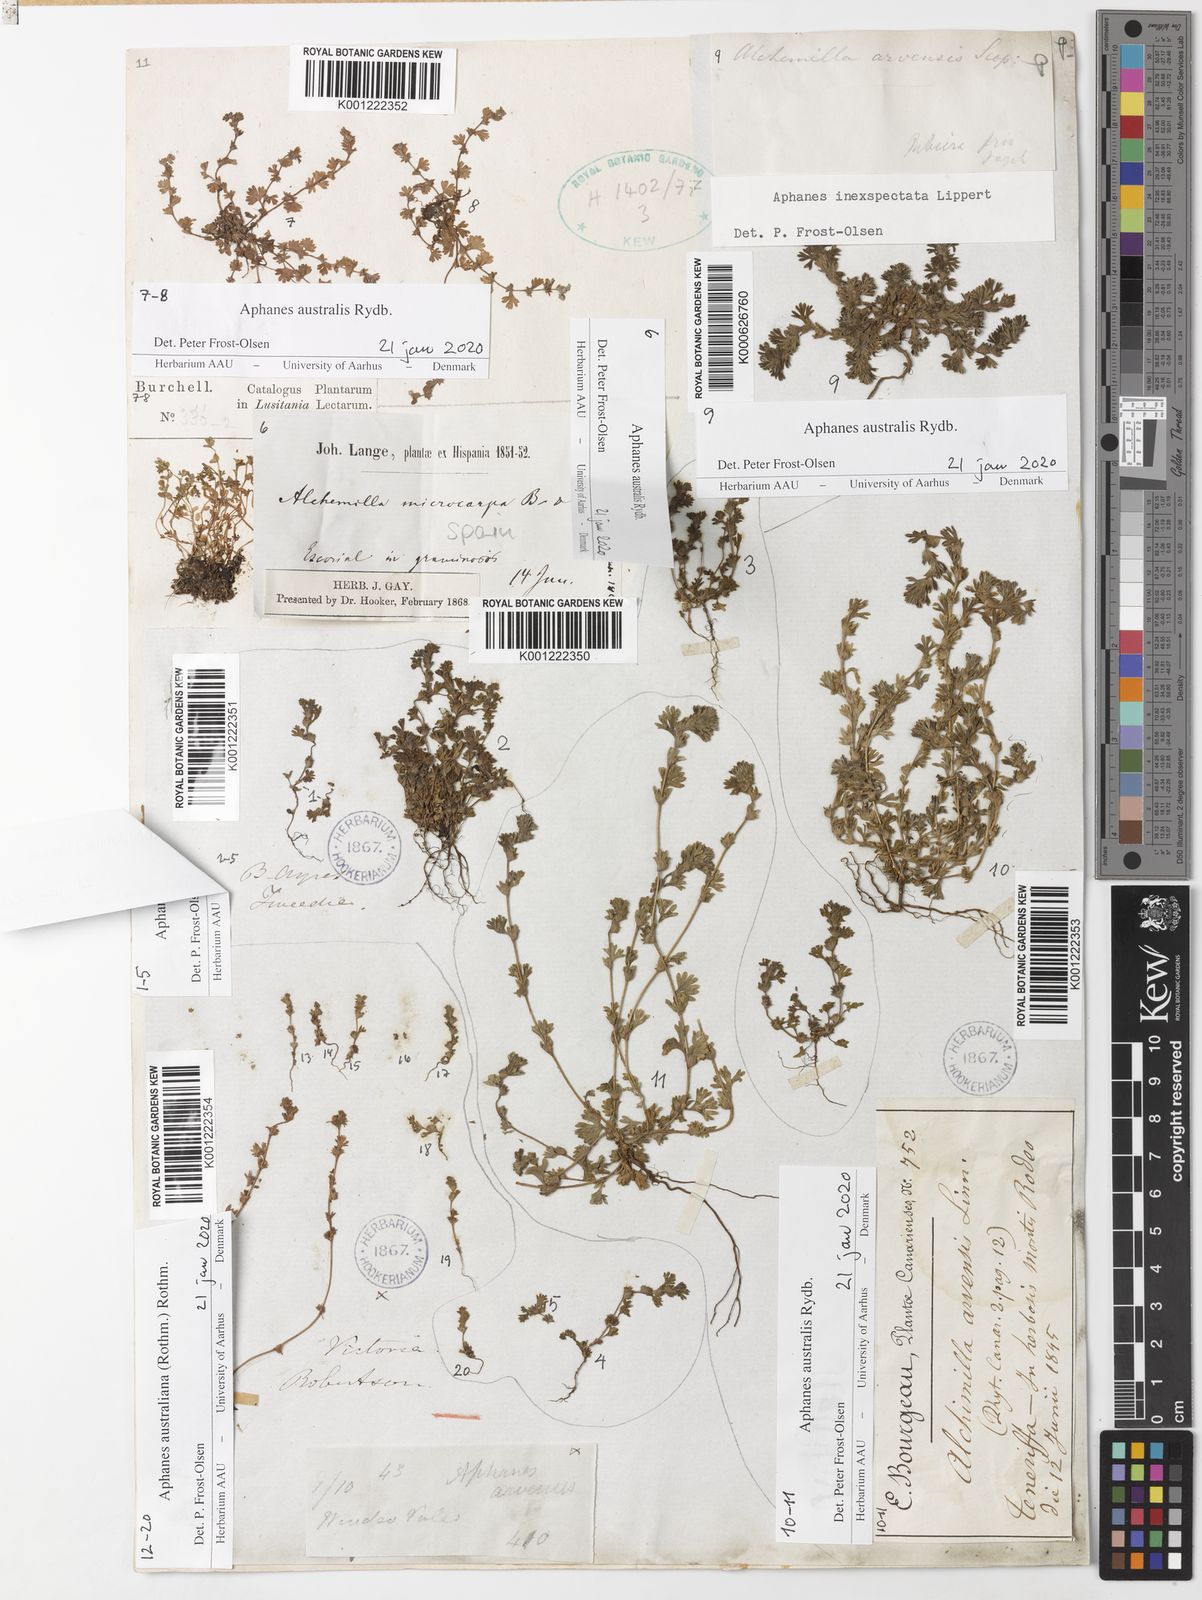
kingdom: Plantae
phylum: Tracheophyta
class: Magnoliopsida
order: Rosales
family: Rosaceae
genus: Aphanes
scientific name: Aphanes australis
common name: Slender parsley-piert
